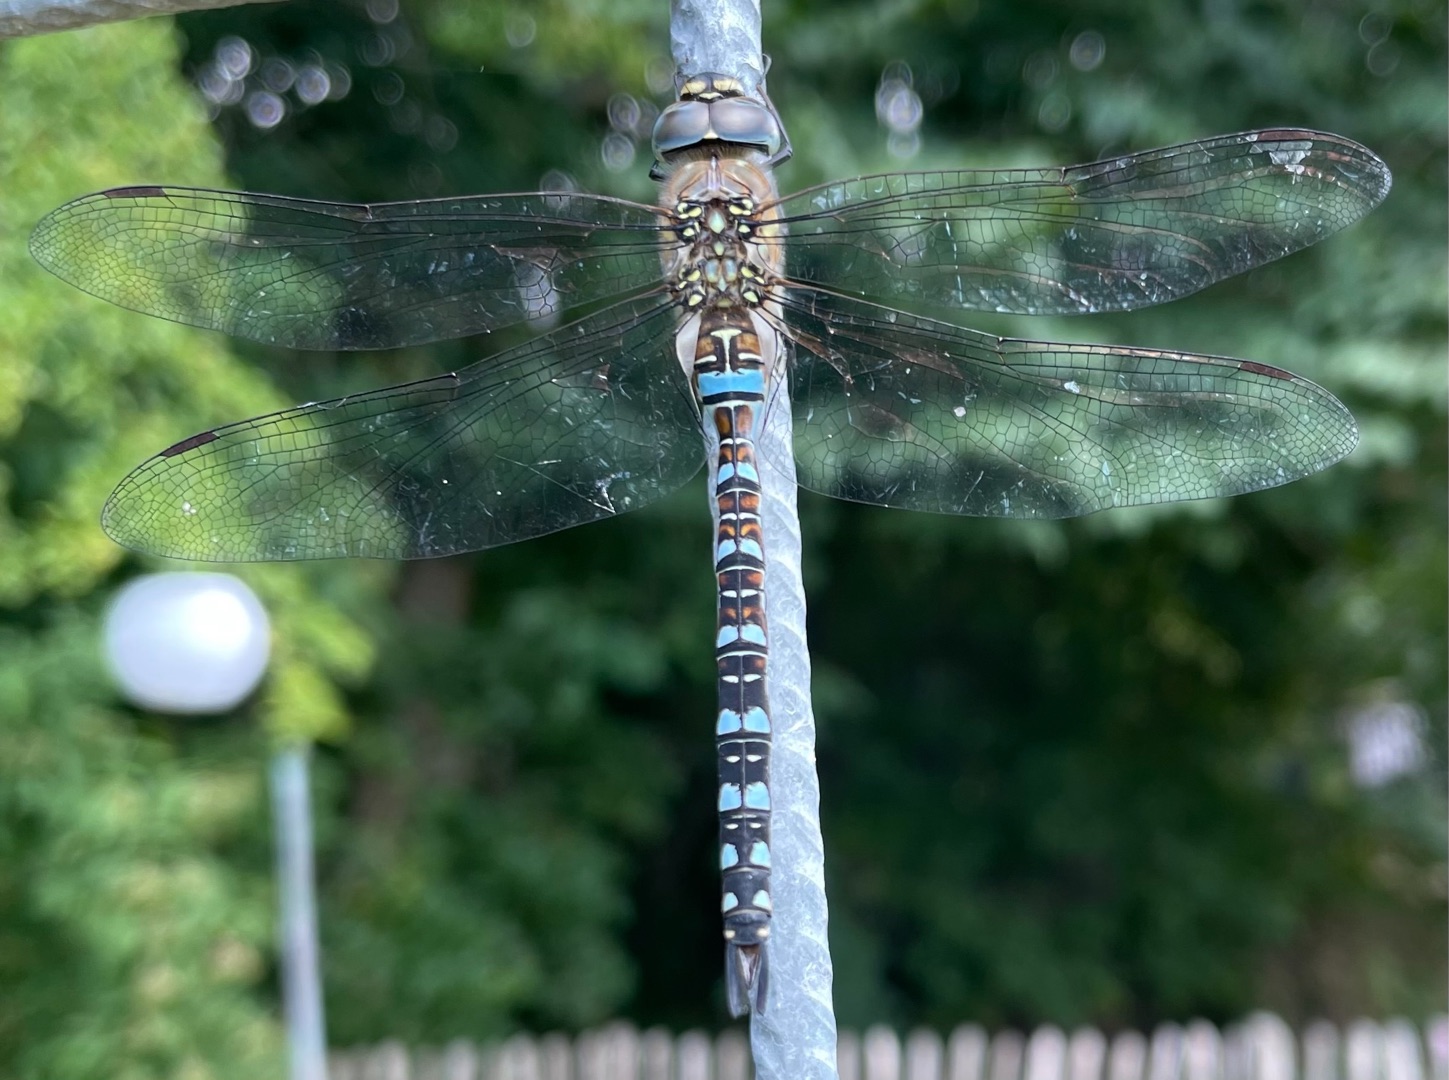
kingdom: Animalia
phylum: Arthropoda
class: Insecta
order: Odonata
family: Aeshnidae
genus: Aeshna
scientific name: Aeshna mixta
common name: Efterårs-mosaikguldsmed
